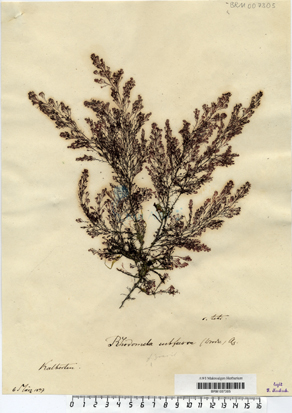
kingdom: Plantae
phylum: Rhodophyta
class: Florideophyceae
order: Ceramiales
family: Rhodomelaceae
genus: Rhodomela
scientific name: Rhodomela confervoides
